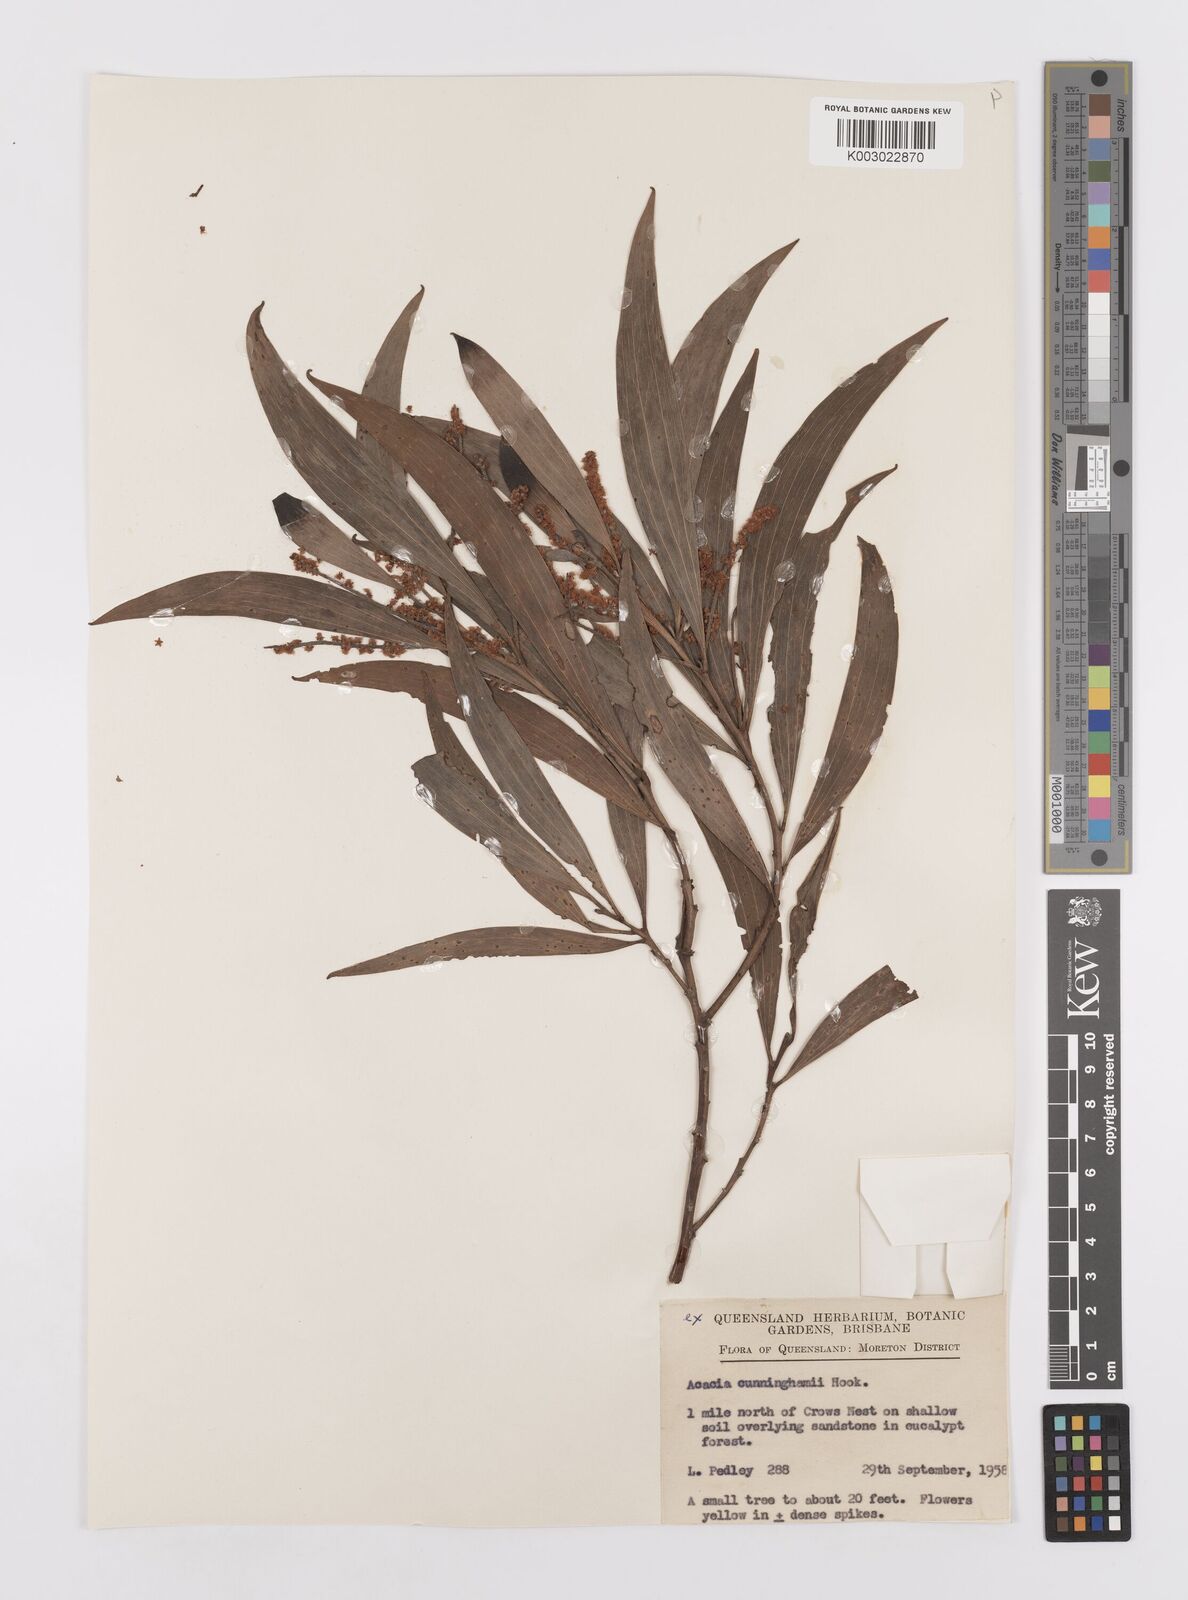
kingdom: Plantae
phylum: Tracheophyta
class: Magnoliopsida
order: Fabales
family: Fabaceae
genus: Acacia
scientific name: Acacia longispicata
